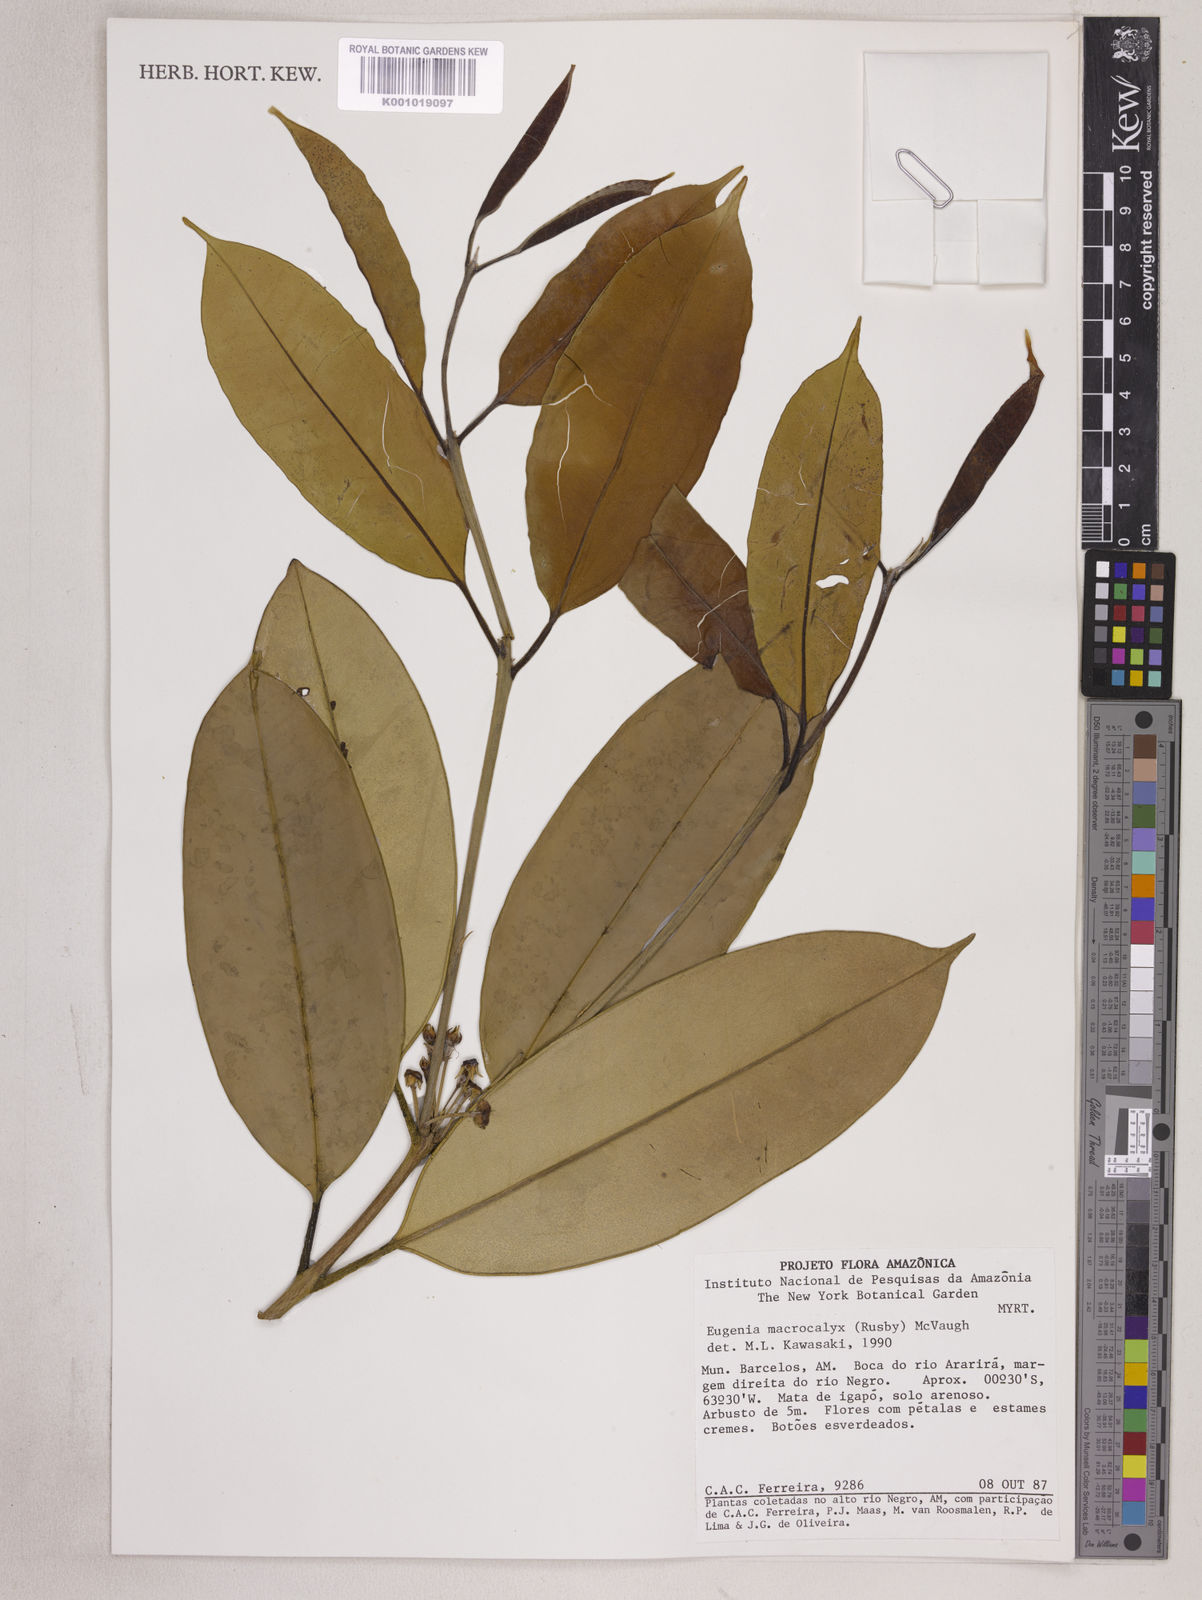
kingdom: Plantae
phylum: Tracheophyta
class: Magnoliopsida
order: Myrtales
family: Myrtaceae
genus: Eugenia
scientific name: Eugenia wentii
